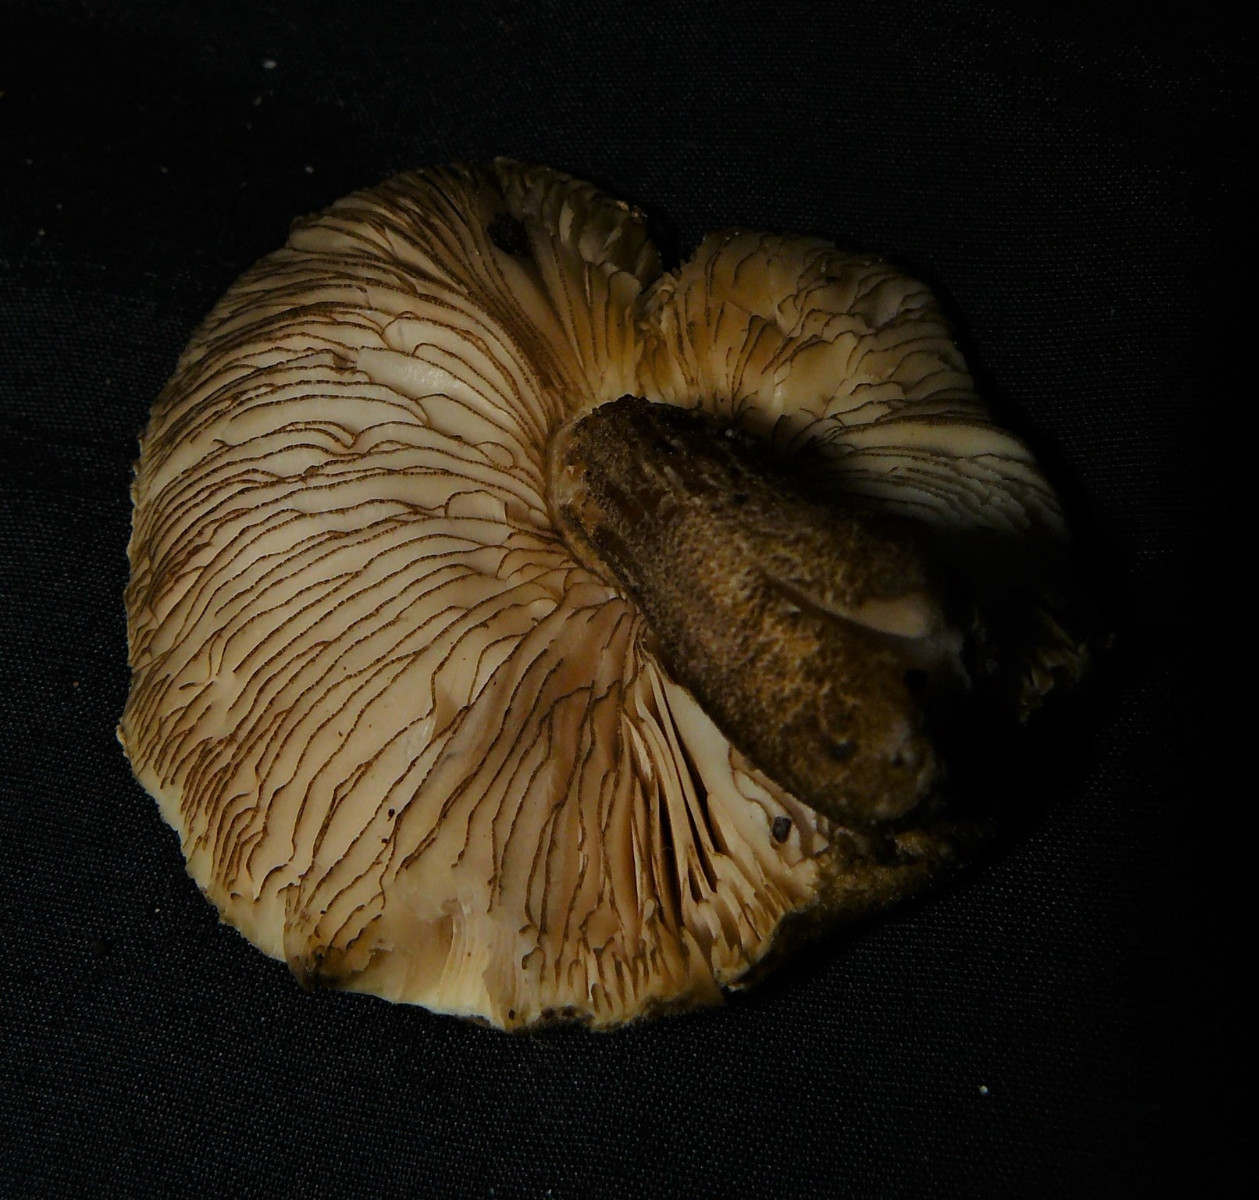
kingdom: Fungi
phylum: Basidiomycota
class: Agaricomycetes
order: Agaricales
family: Pluteaceae
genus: Pluteus
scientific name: Pluteus umbrosus
